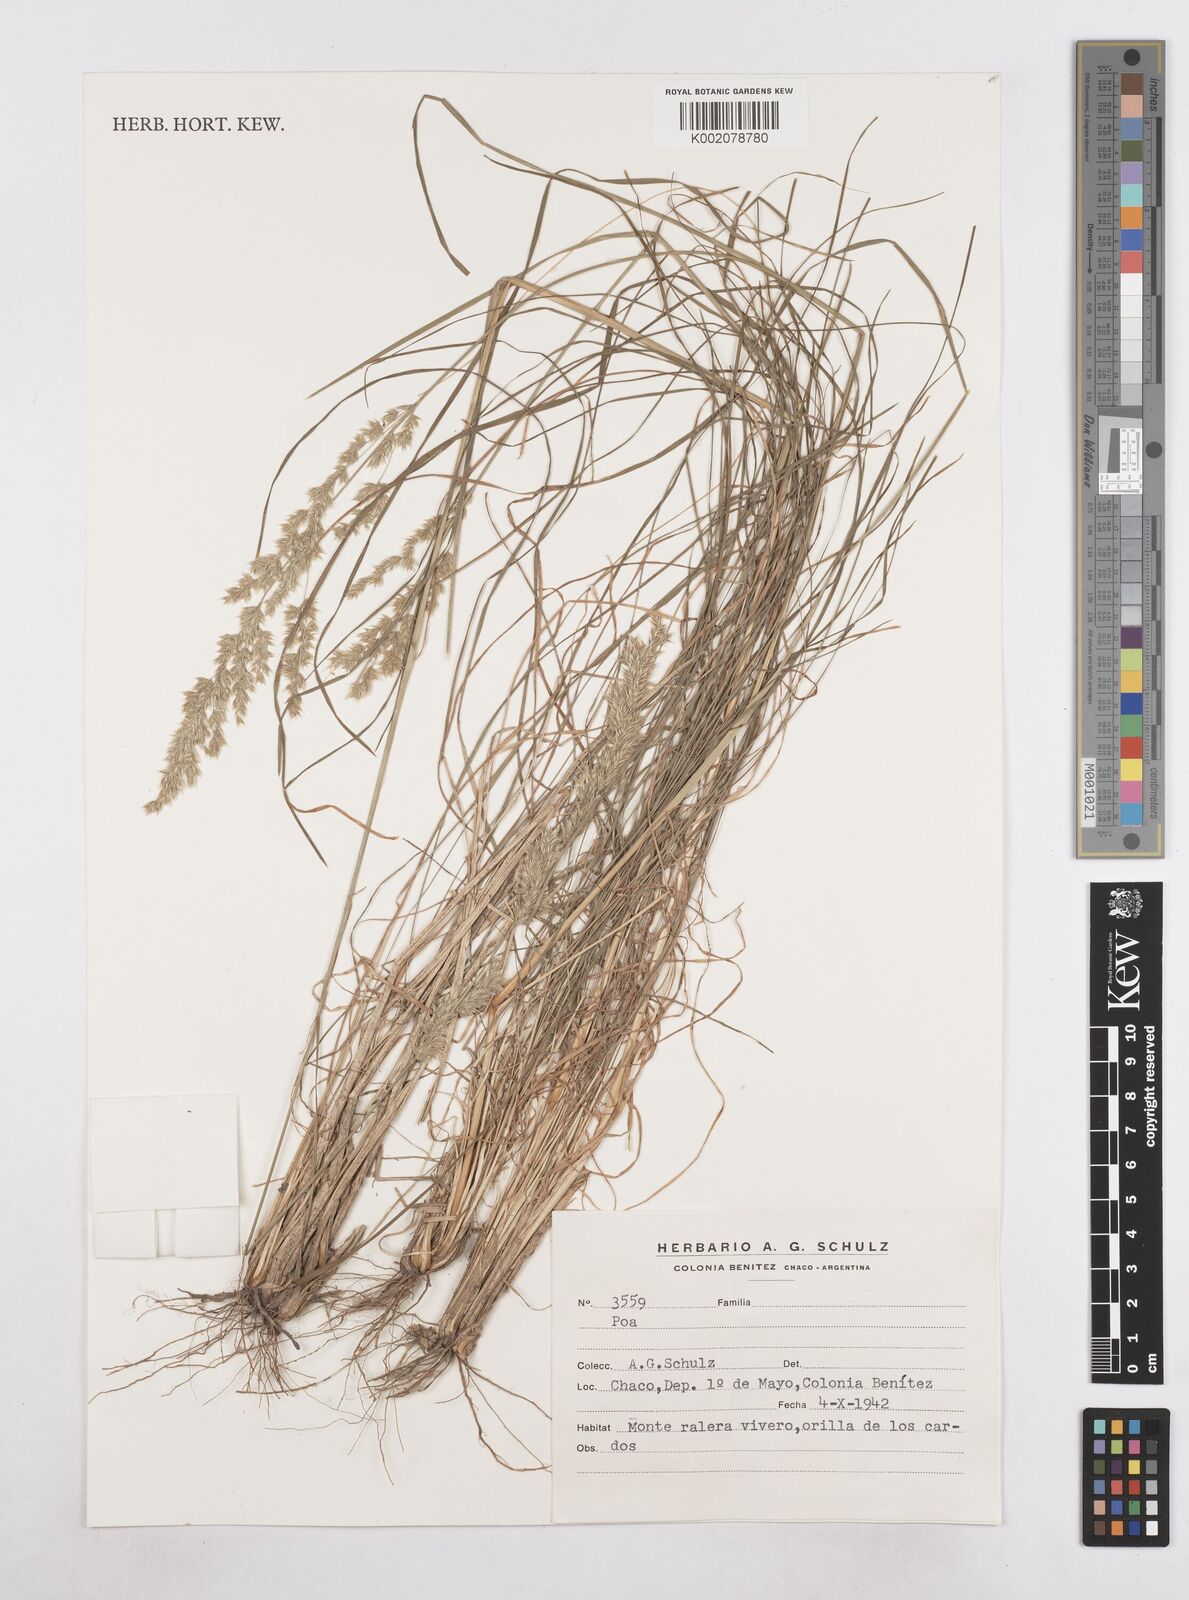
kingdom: Plantae
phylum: Tracheophyta
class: Liliopsida
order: Poales
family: Poaceae
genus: Poa
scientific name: Poa
